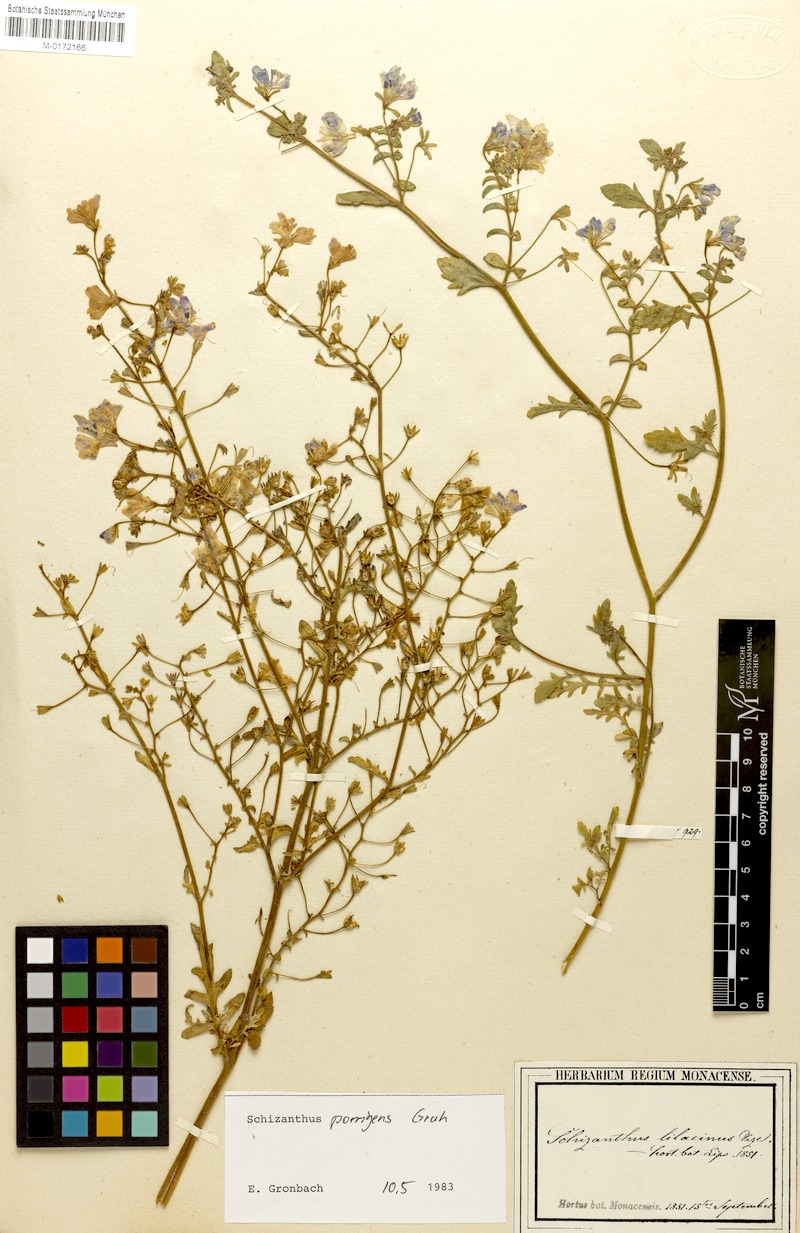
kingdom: Plantae
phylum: Tracheophyta
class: Magnoliopsida
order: Solanales
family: Solanaceae
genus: Schizanthus
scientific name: Schizanthus porrigens
